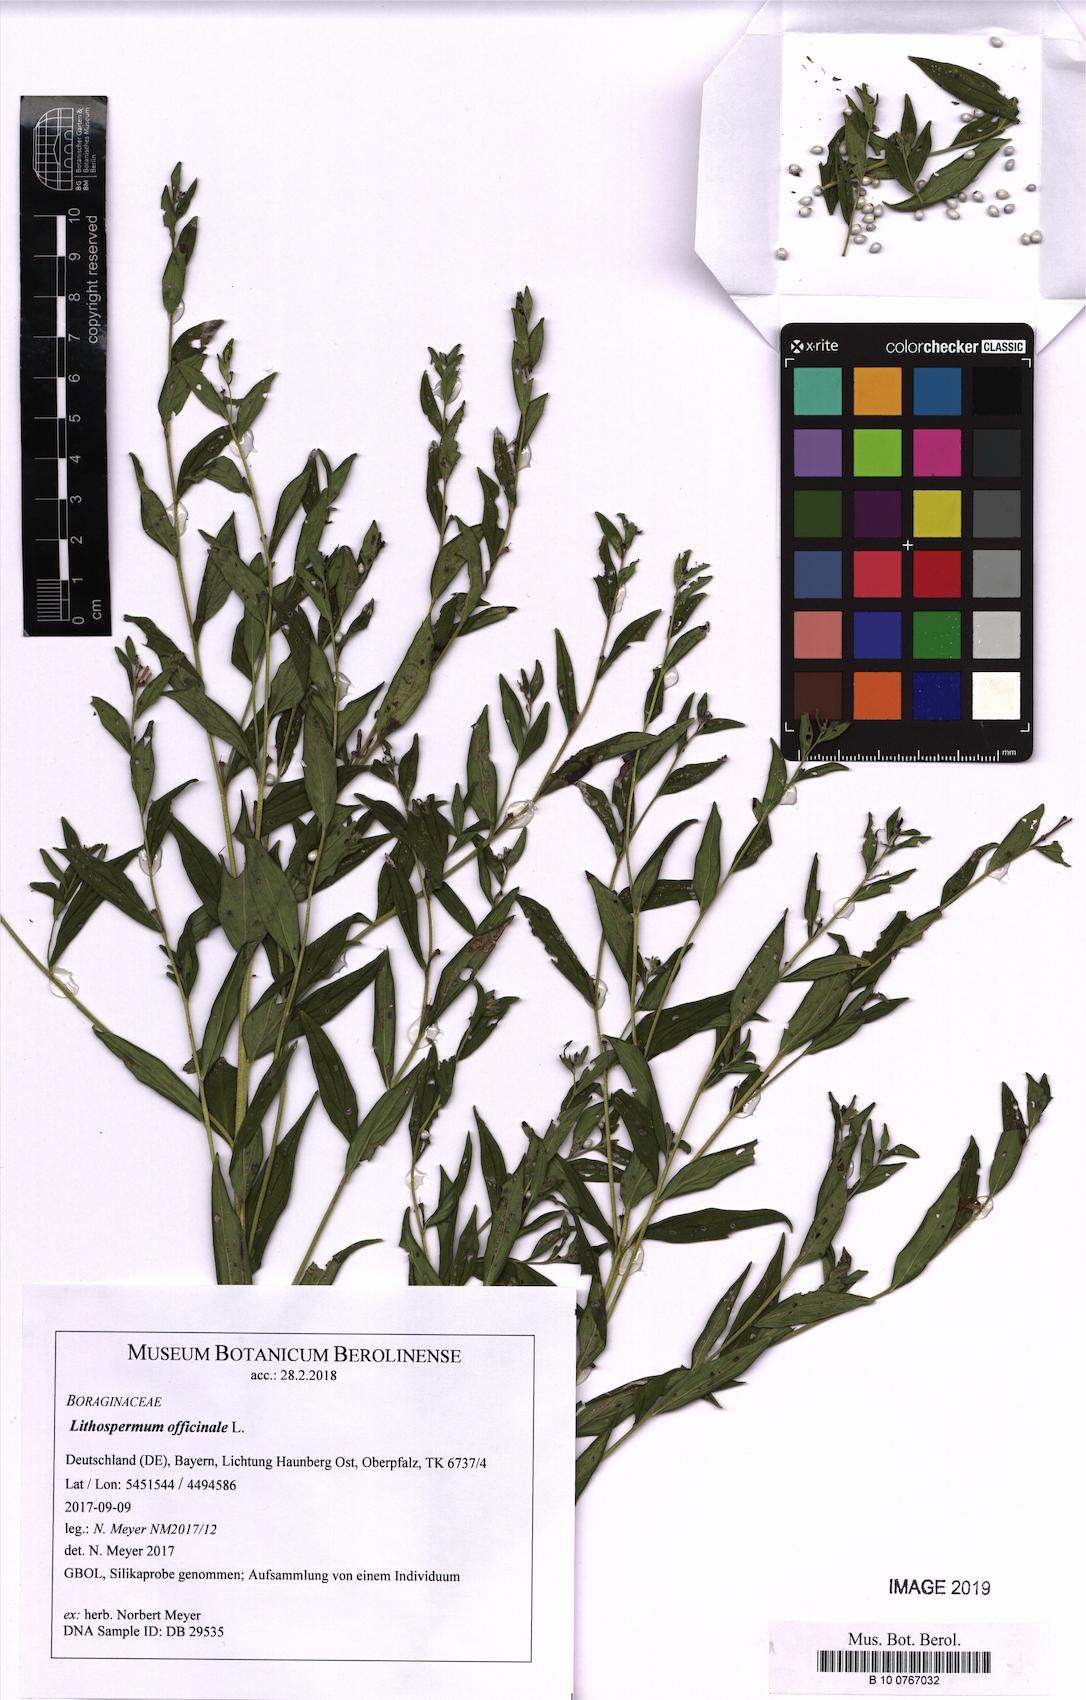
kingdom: Plantae
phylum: Tracheophyta
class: Magnoliopsida
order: Boraginales
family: Boraginaceae
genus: Lithospermum
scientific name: Lithospermum officinale
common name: Common gromwell
